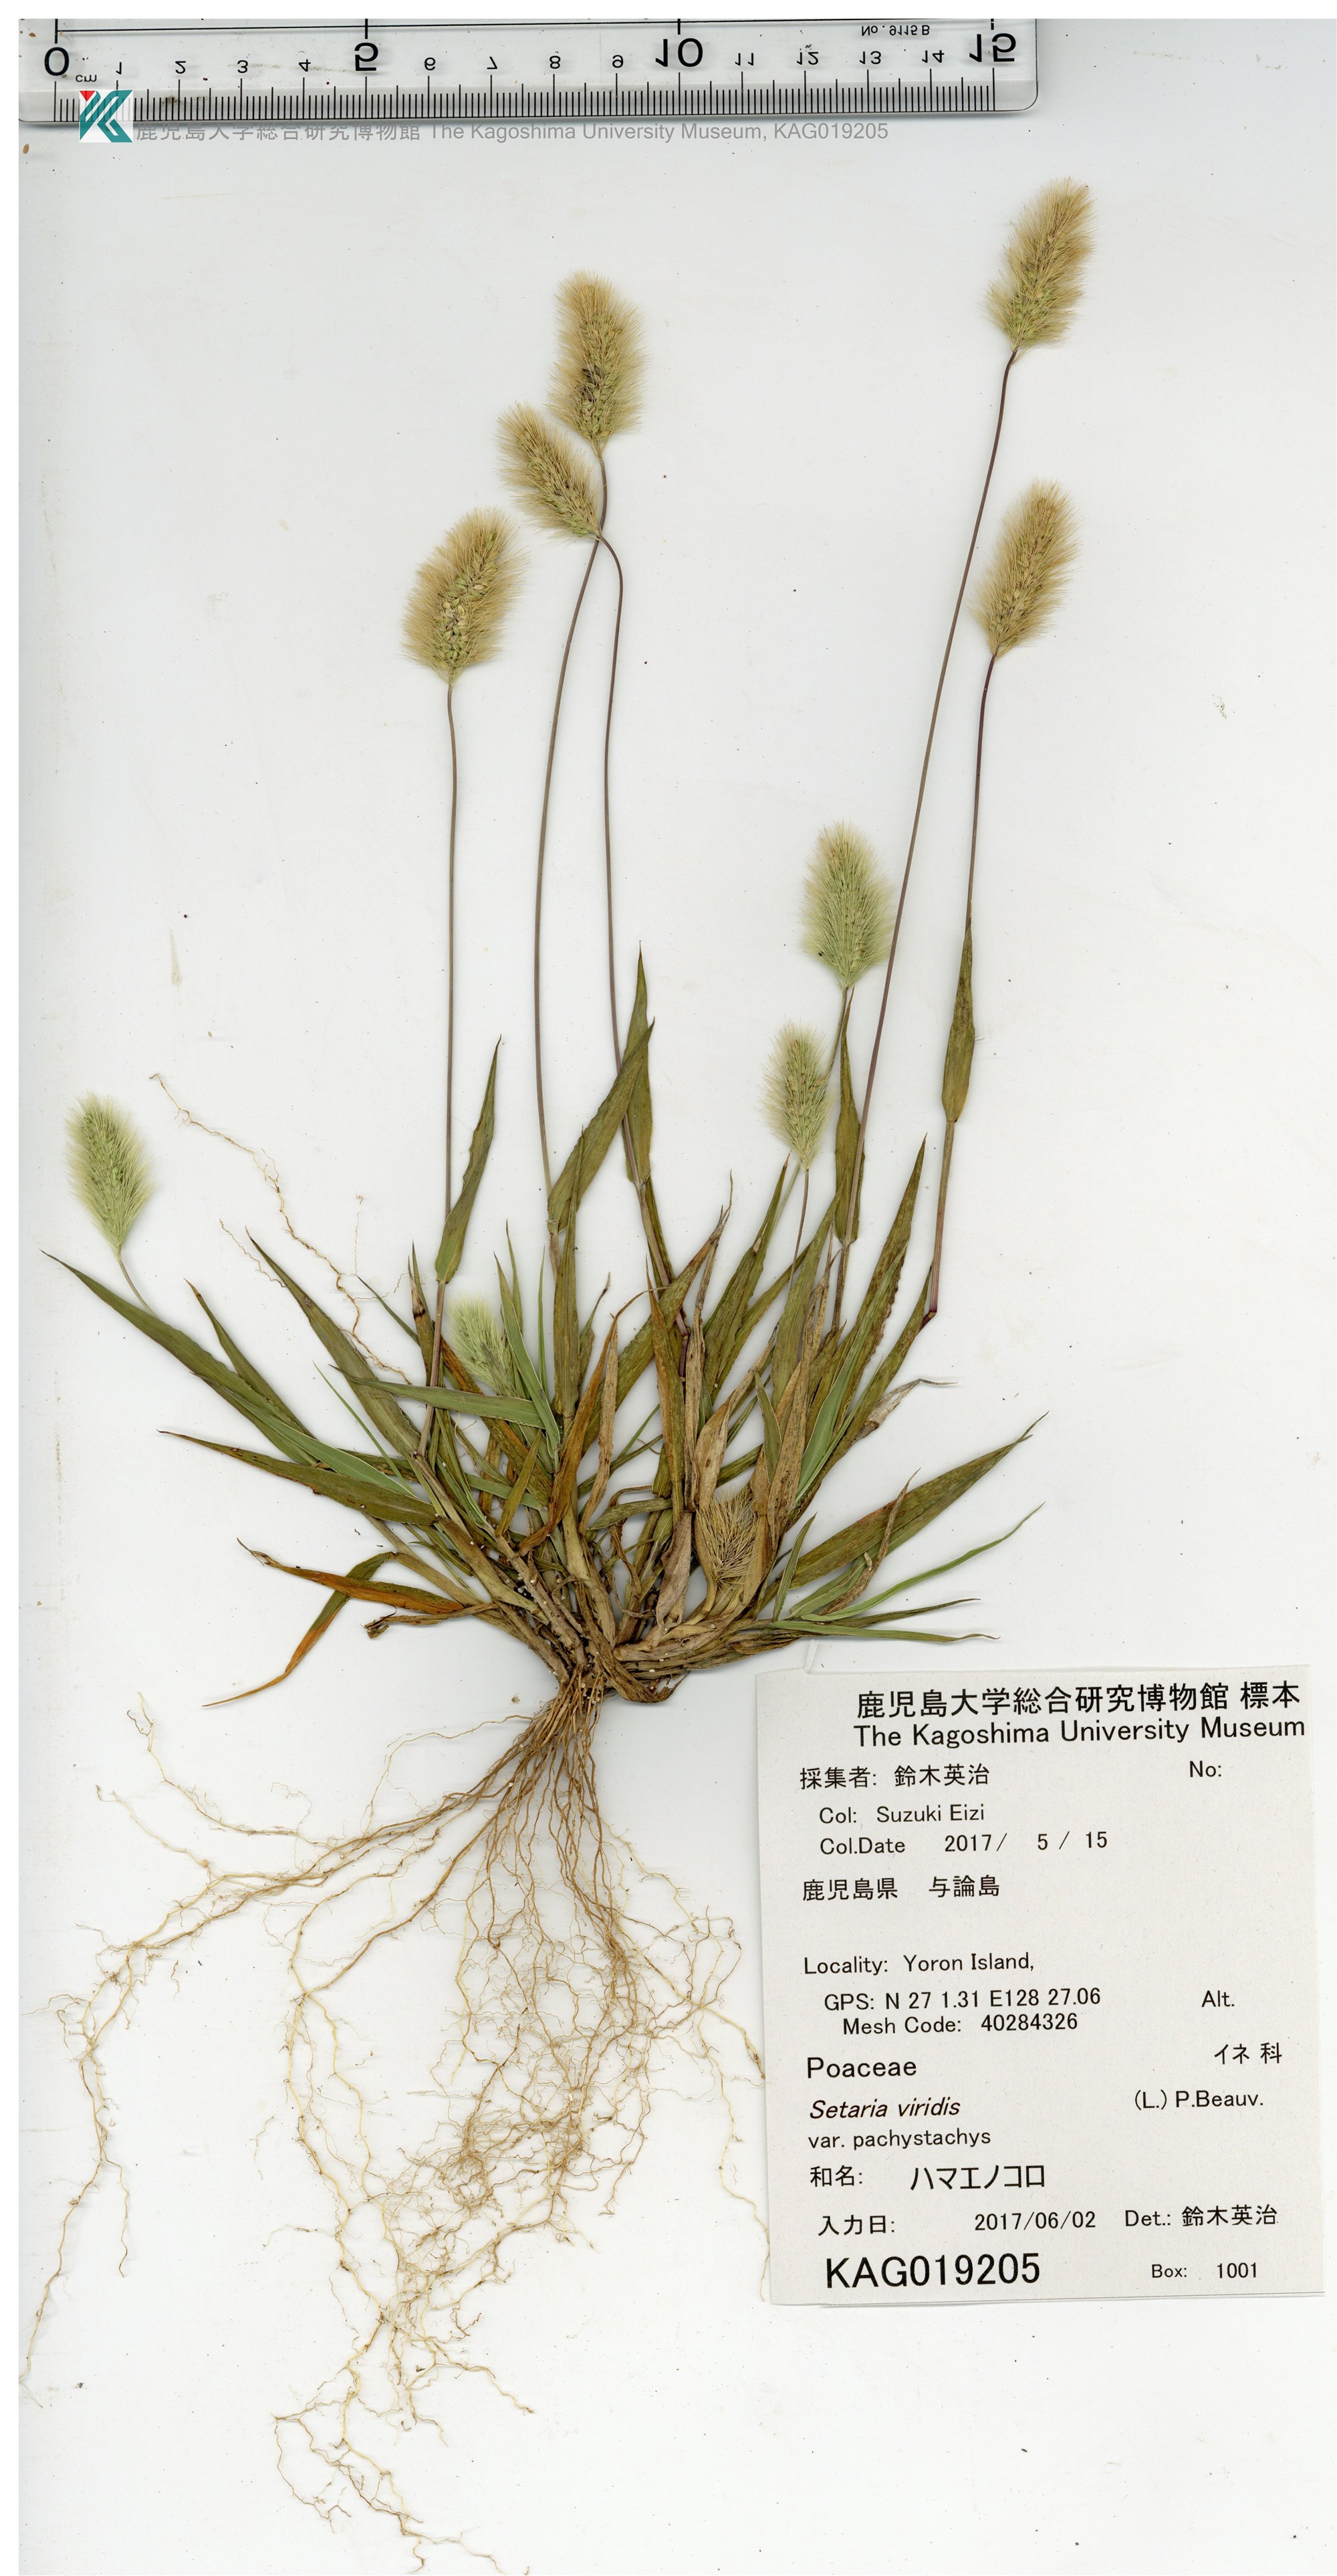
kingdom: Plantae
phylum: Tracheophyta
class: Liliopsida
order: Poales
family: Poaceae
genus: Setaria
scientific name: Setaria viridis
